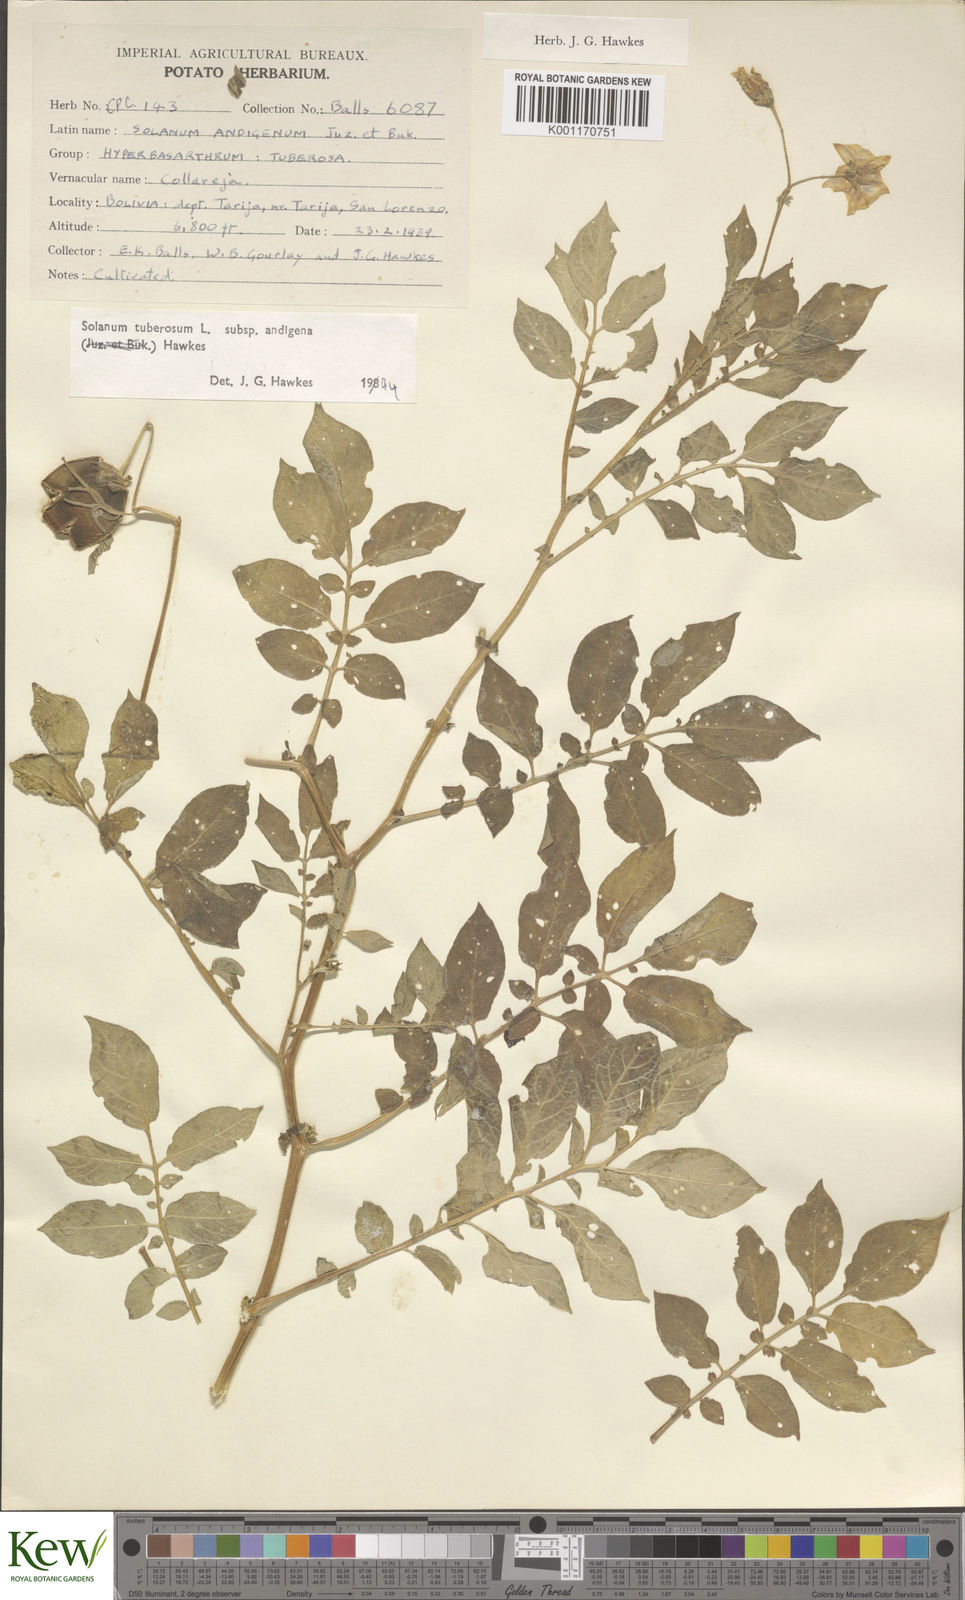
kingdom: Plantae
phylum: Tracheophyta
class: Magnoliopsida
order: Solanales
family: Solanaceae
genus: Solanum
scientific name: Solanum tuberosum
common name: Potato
